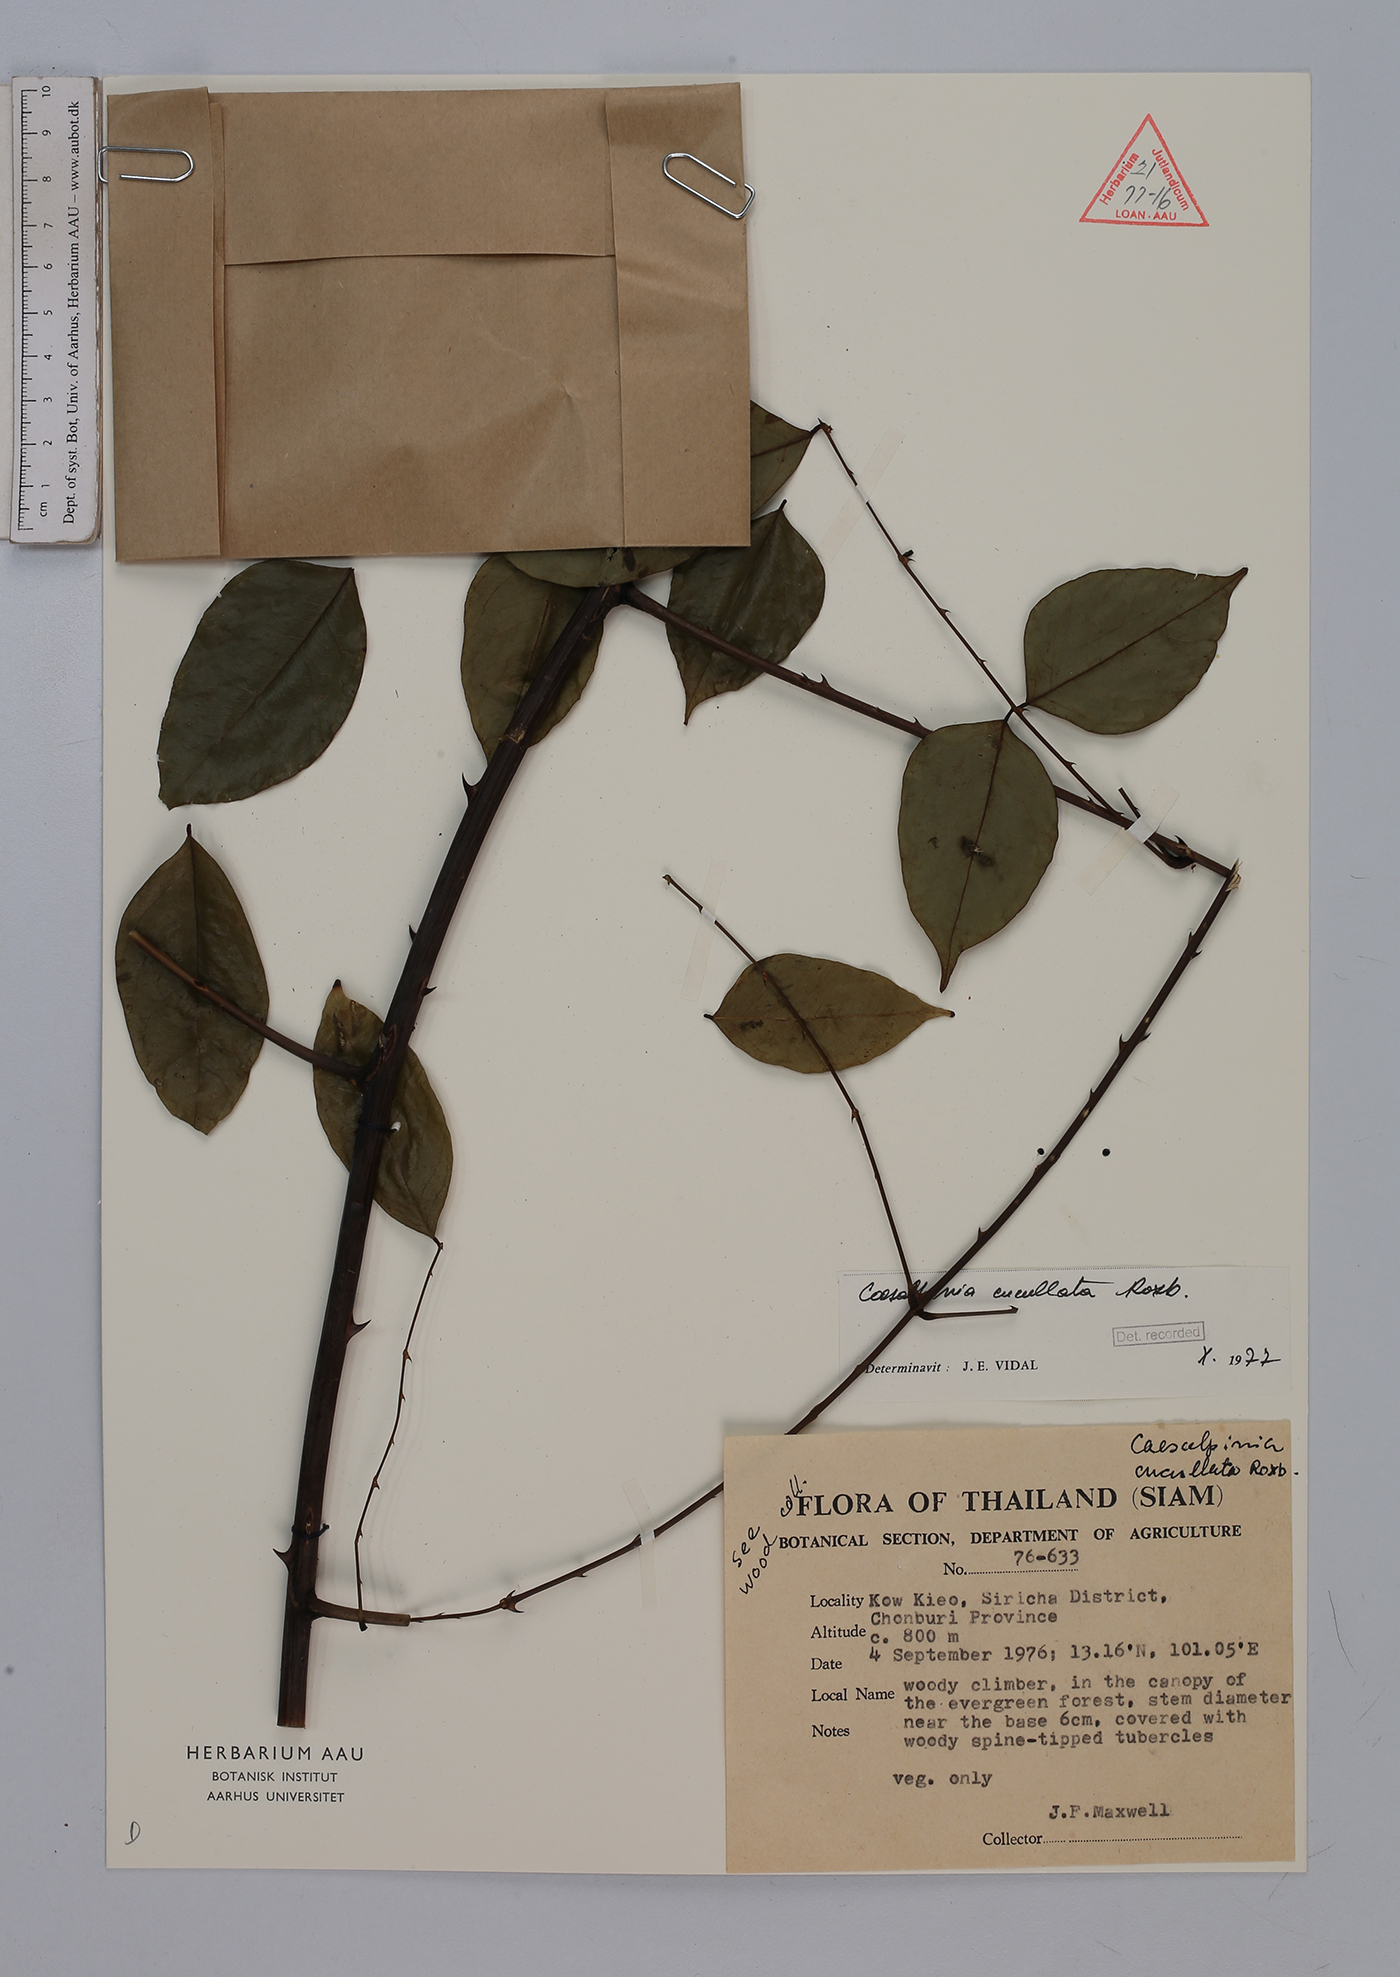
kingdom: Plantae
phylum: Tracheophyta
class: Magnoliopsida
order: Fabales
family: Fabaceae
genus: Mezoneuron
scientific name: Mezoneuron cucullatum
